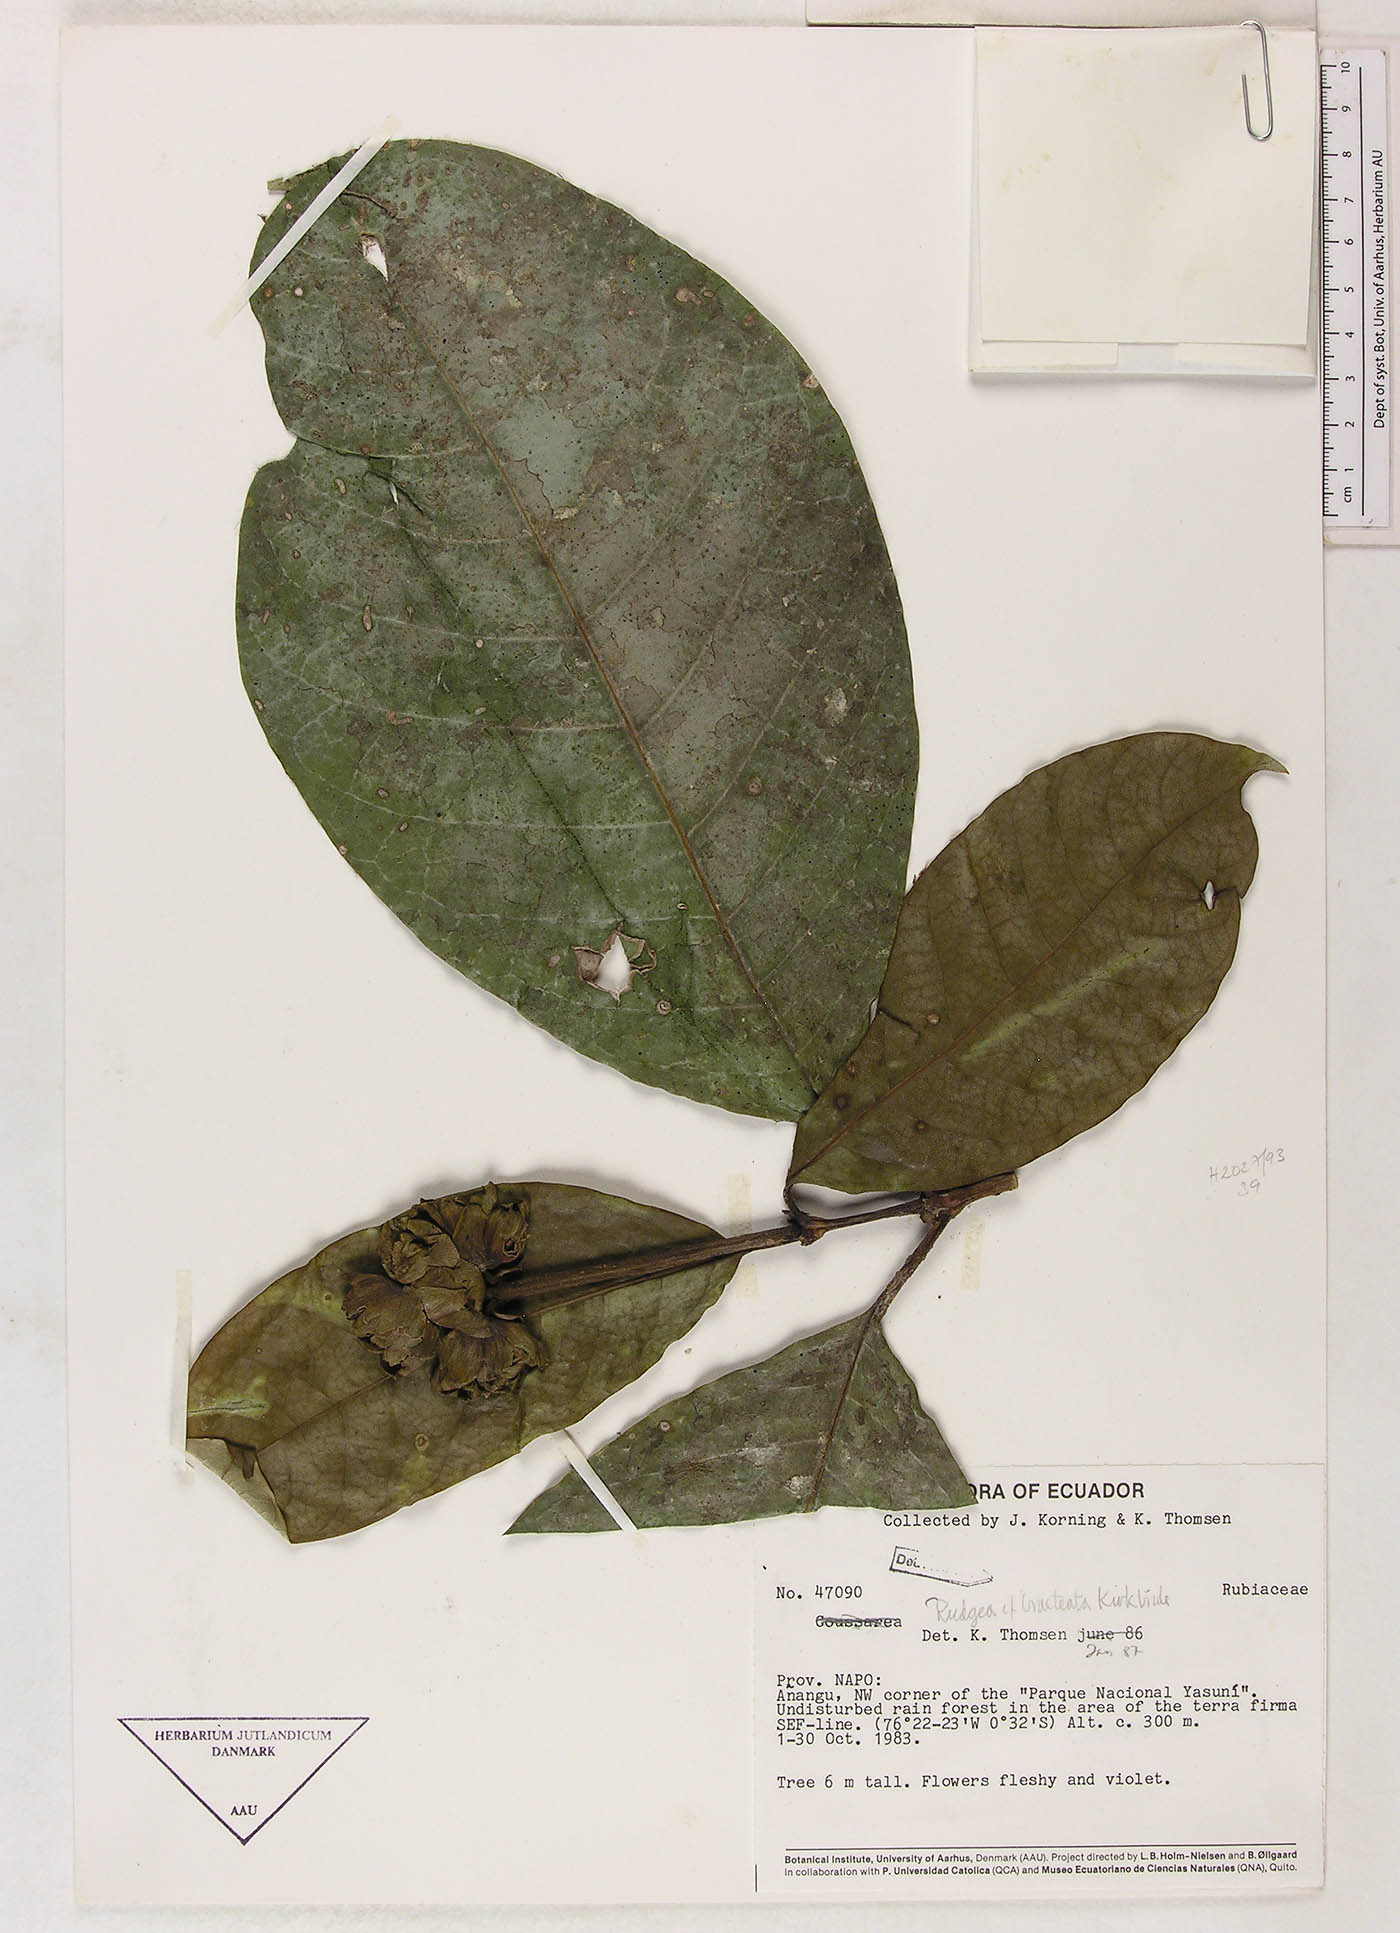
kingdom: Plantae
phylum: Tracheophyta
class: Magnoliopsida
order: Gentianales
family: Rubiaceae
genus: Rudgea
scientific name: Rudgea bracteata
